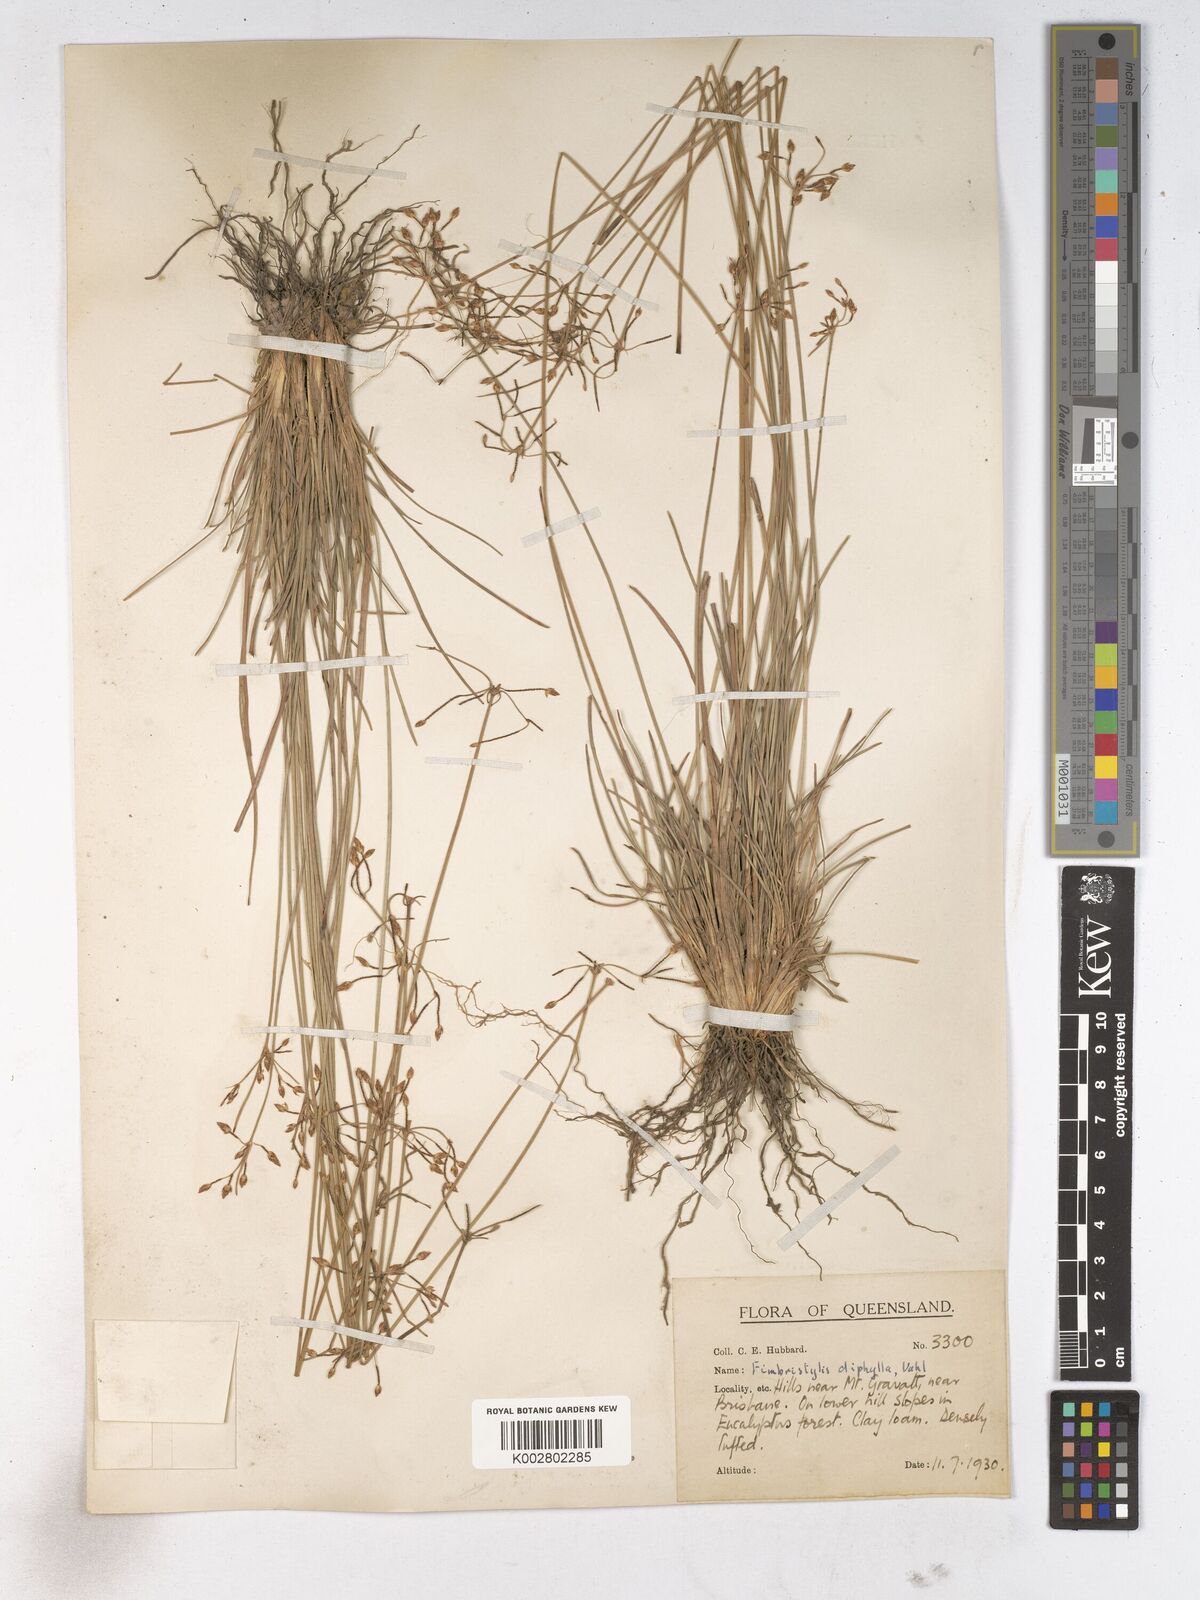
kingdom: Plantae
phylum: Tracheophyta
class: Liliopsida
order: Poales
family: Cyperaceae
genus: Fimbristylis
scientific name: Fimbristylis dichotoma
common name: Forked fimbry
